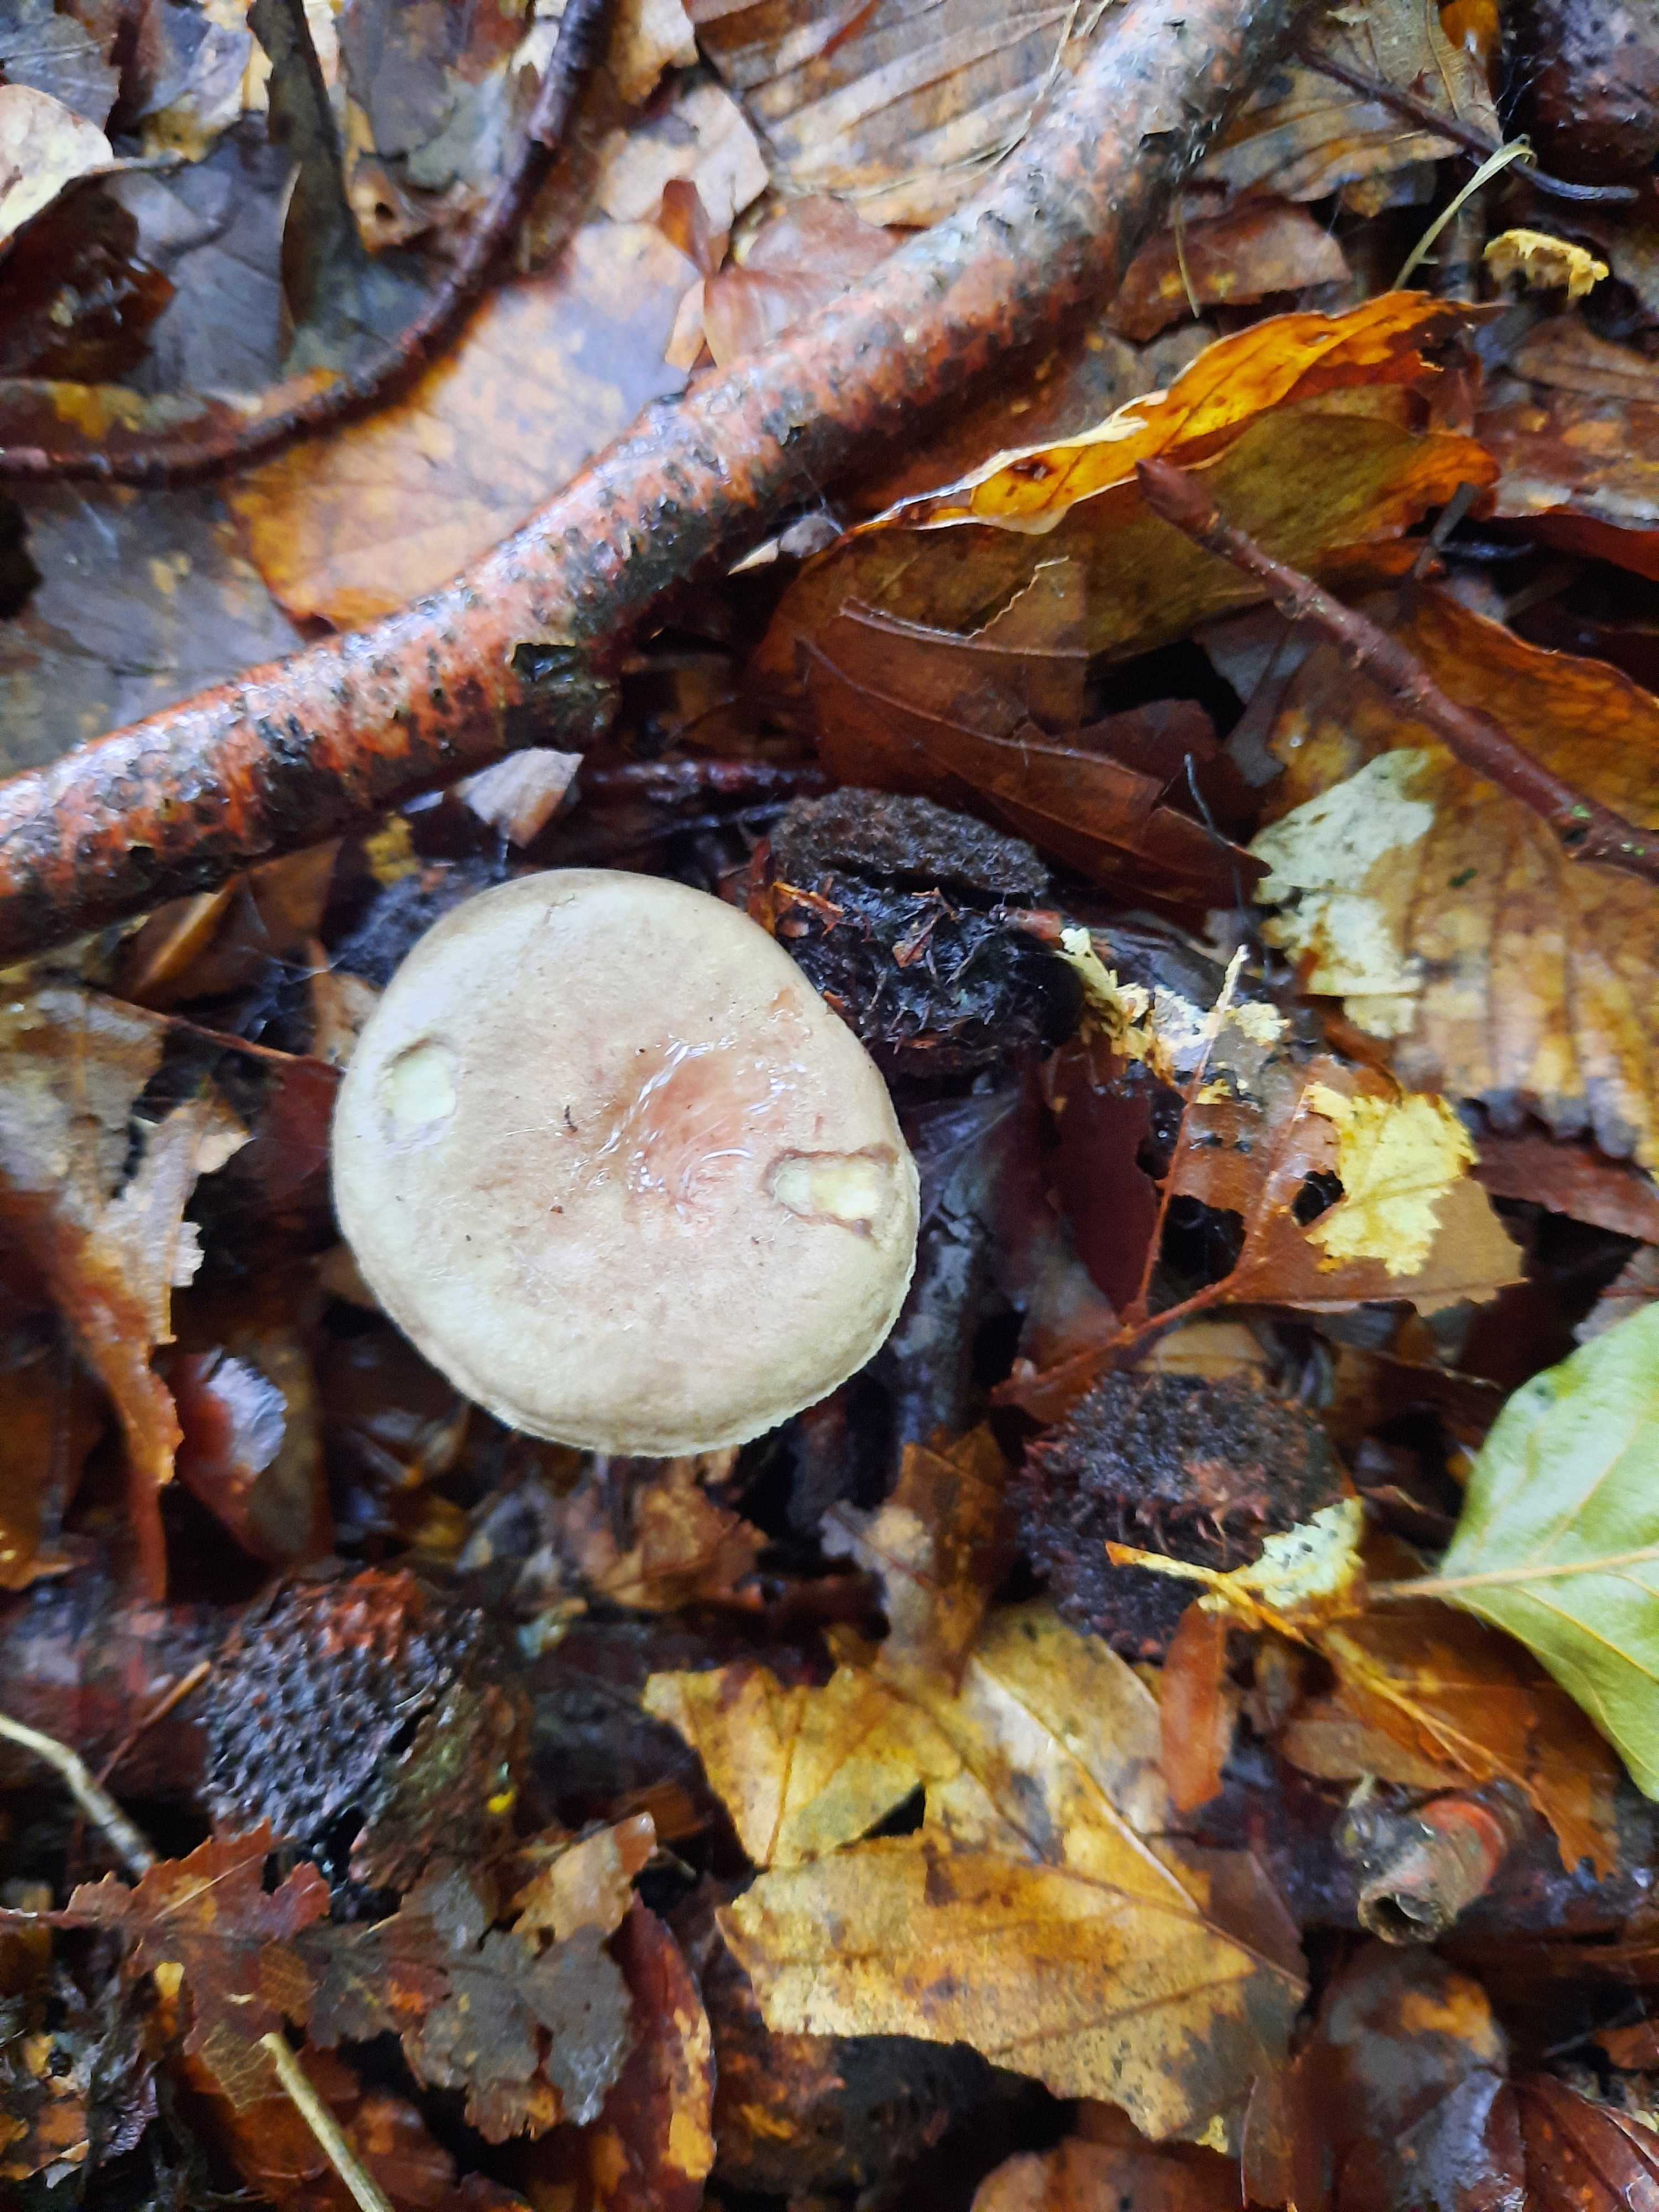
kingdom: Fungi
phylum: Basidiomycota
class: Agaricomycetes
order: Russulales
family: Russulaceae
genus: Lactarius
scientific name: Lactarius blennius
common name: dråbeplettet mælkehat
